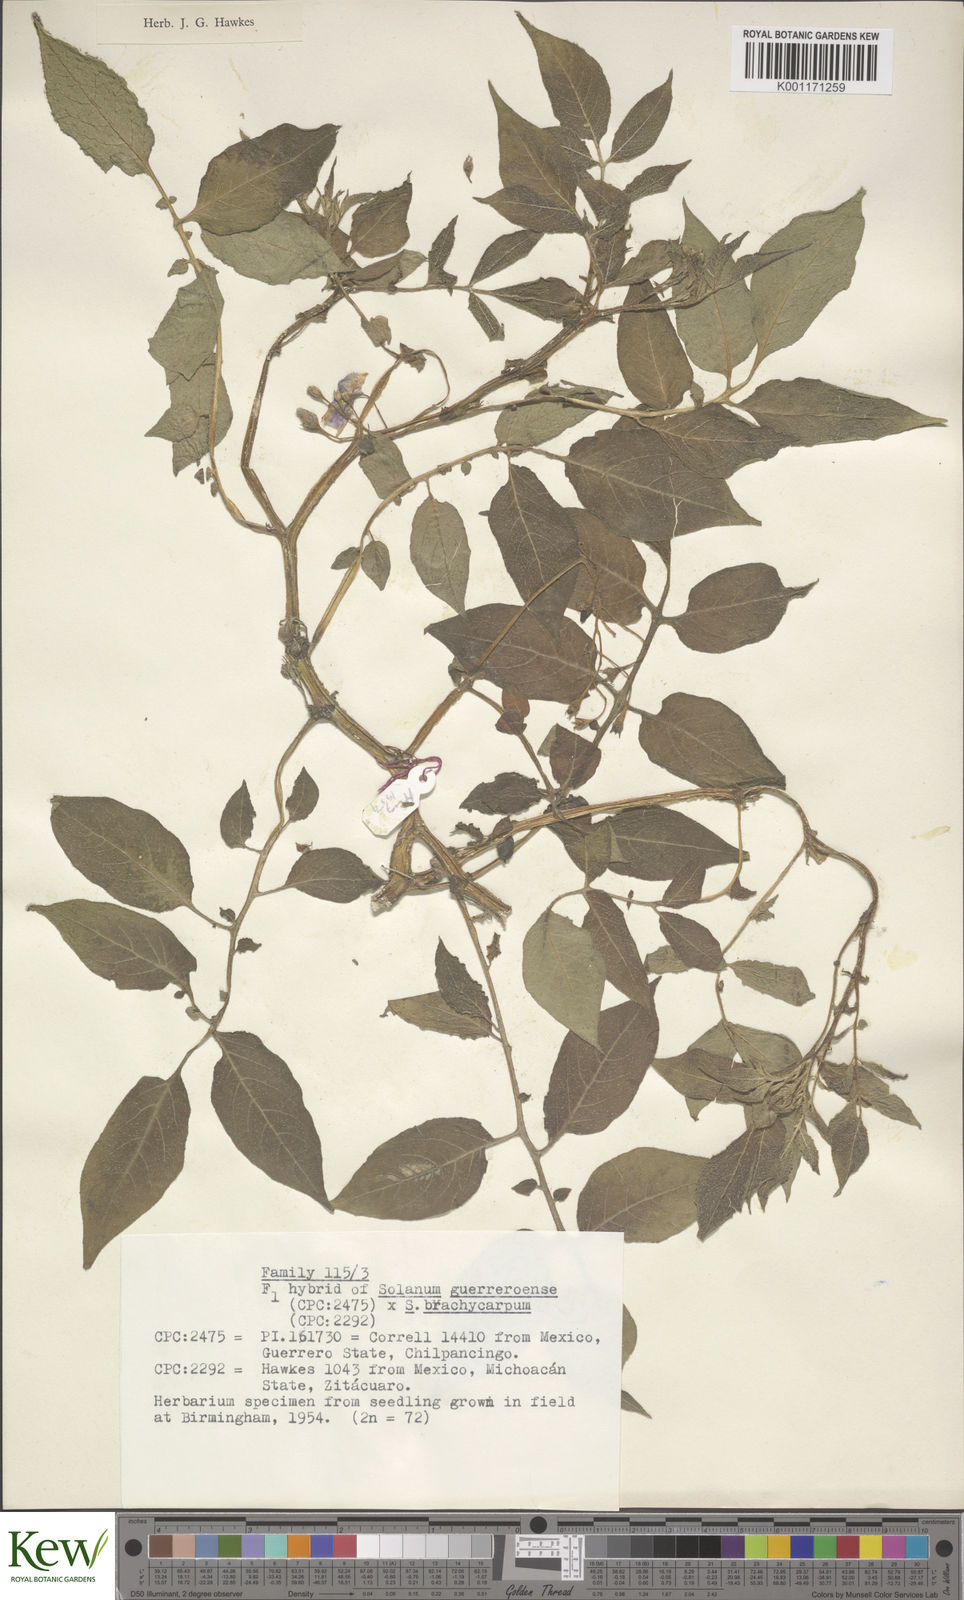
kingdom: Plantae
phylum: Tracheophyta
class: Magnoliopsida
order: Solanales
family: Solanaceae
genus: Solanum
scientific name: Solanum guerreroense
